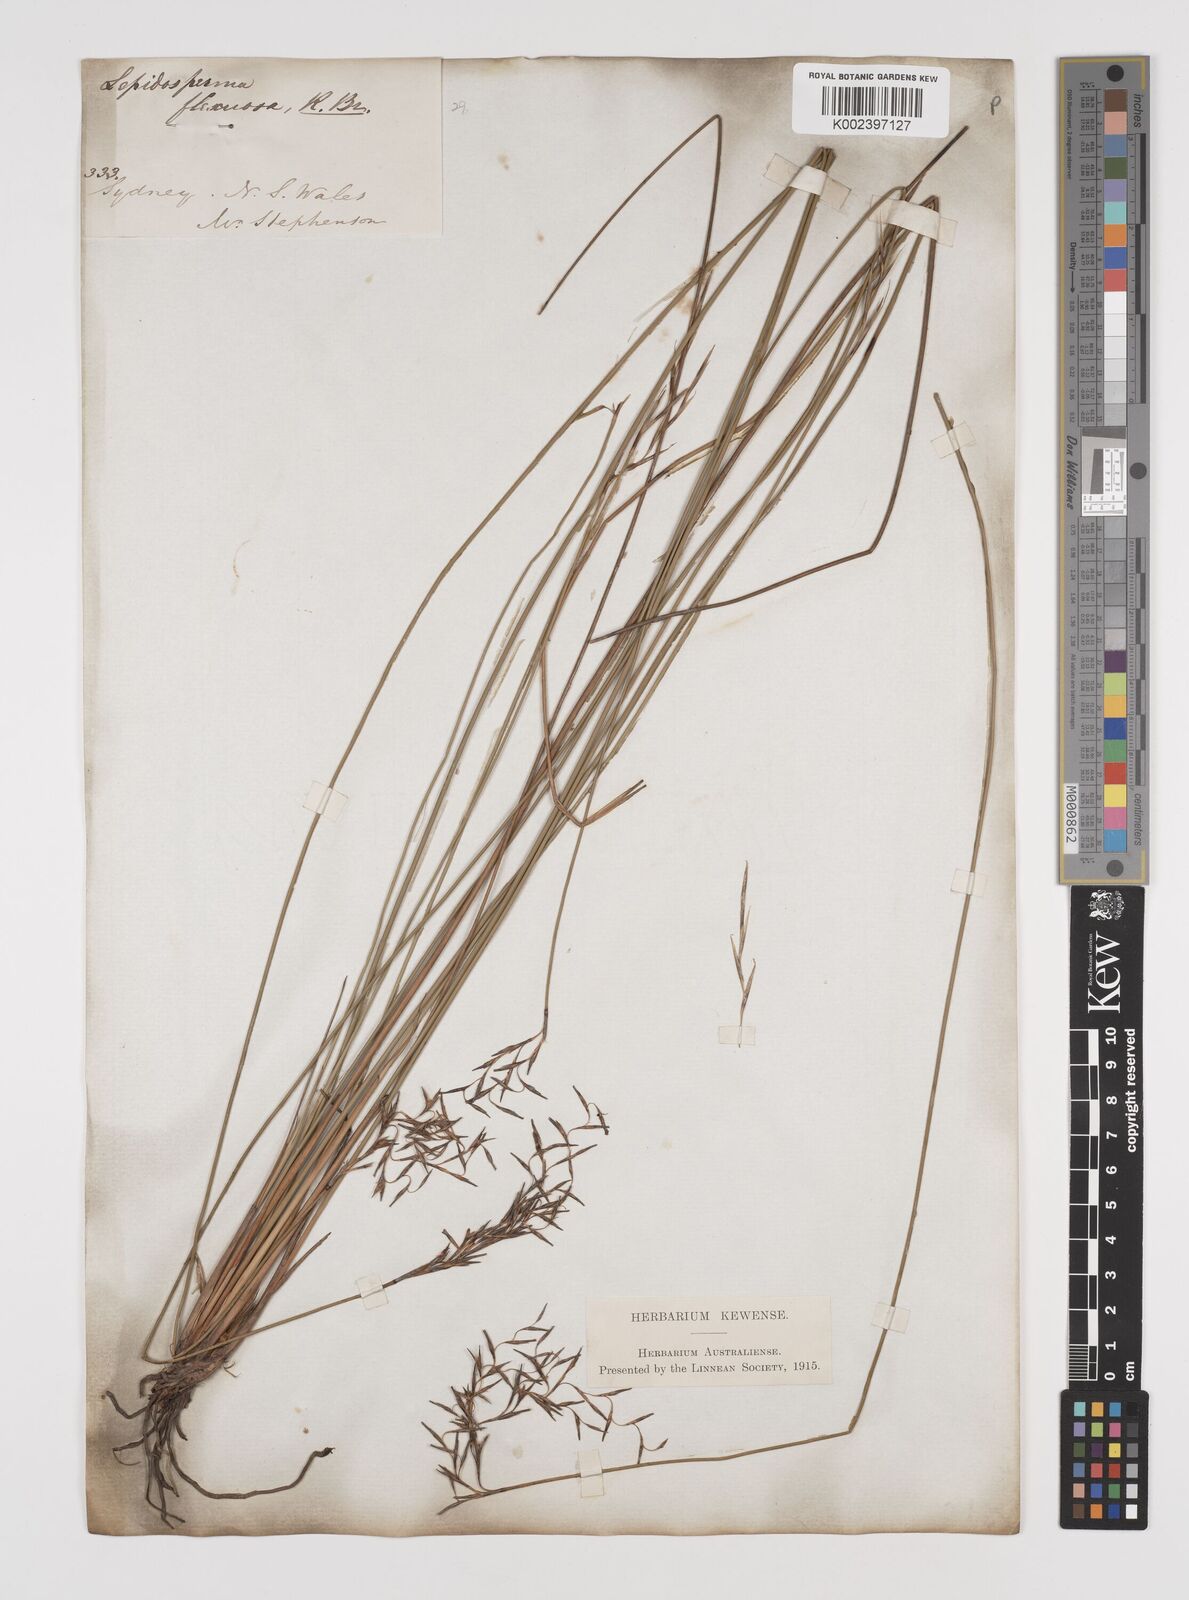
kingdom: Plantae
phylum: Tracheophyta
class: Liliopsida
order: Poales
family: Cyperaceae
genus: Lepidosperma
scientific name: Lepidosperma flexuosum
